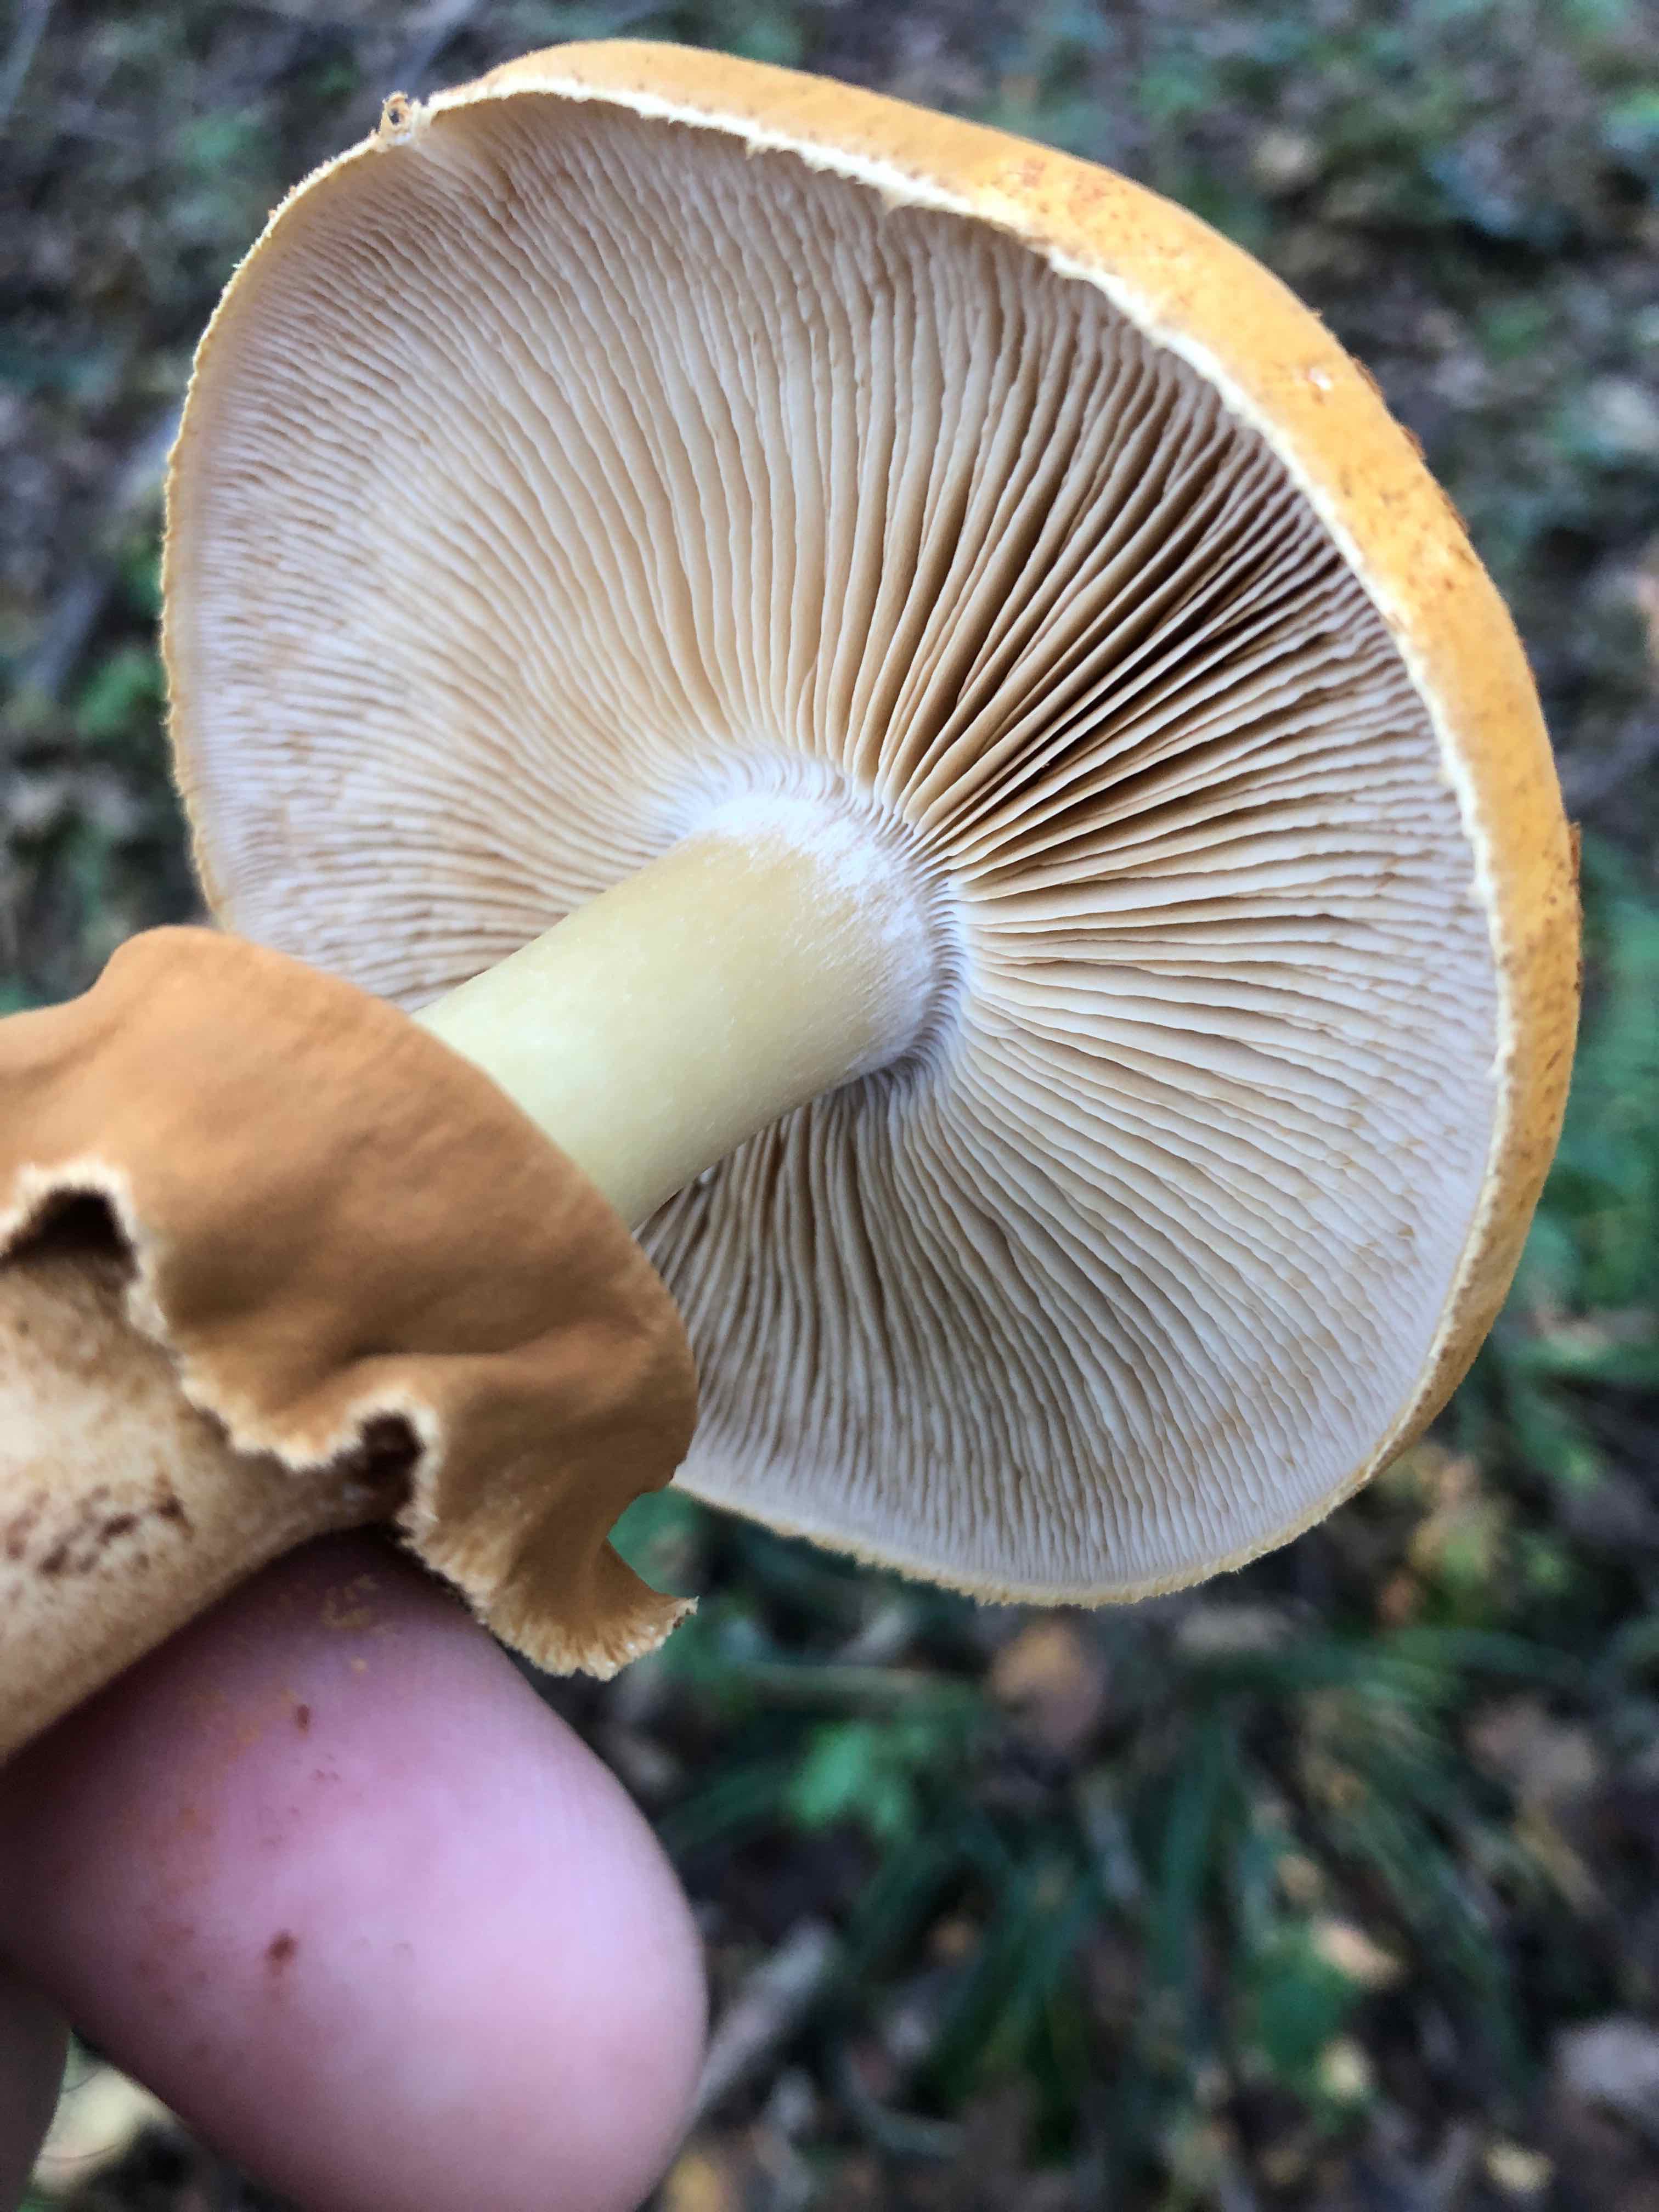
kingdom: Fungi
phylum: Basidiomycota
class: Agaricomycetes
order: Agaricales
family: Tricholomataceae
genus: Phaeolepiota
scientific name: Phaeolepiota aurea
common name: gyldenhat
